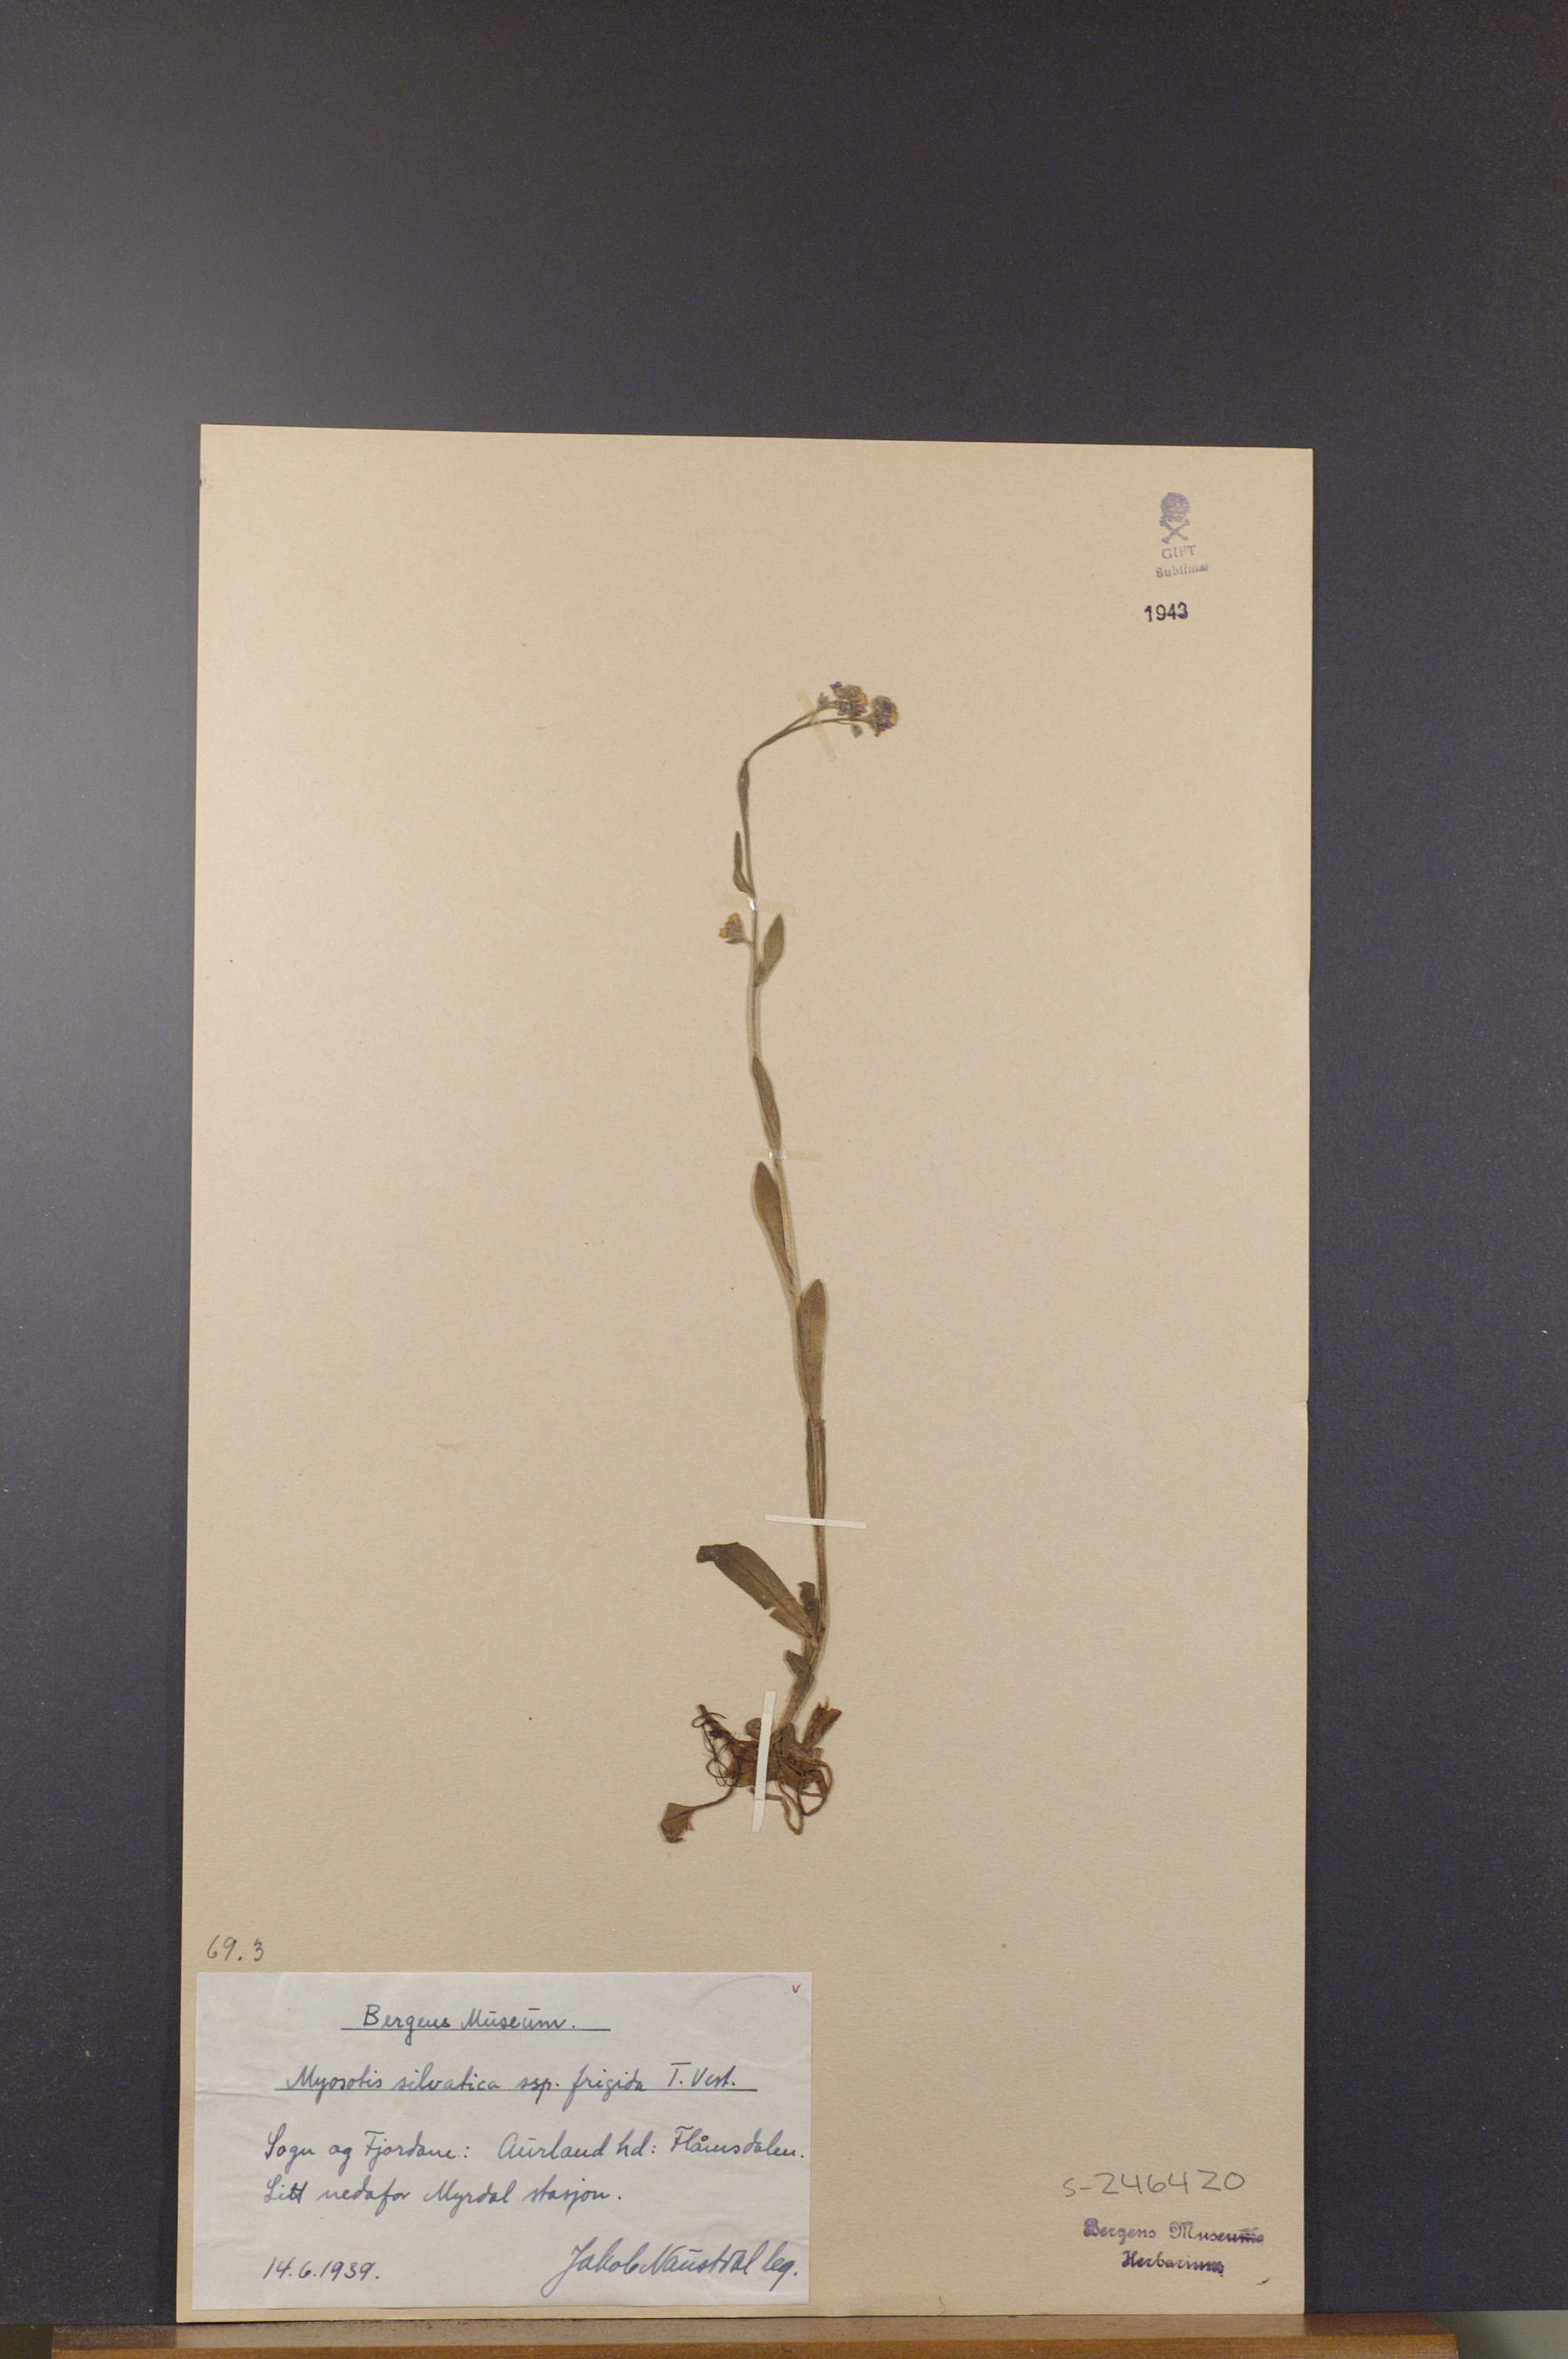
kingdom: Plantae
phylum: Tracheophyta
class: Magnoliopsida
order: Boraginales
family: Boraginaceae
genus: Myosotis
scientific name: Myosotis decumbens
